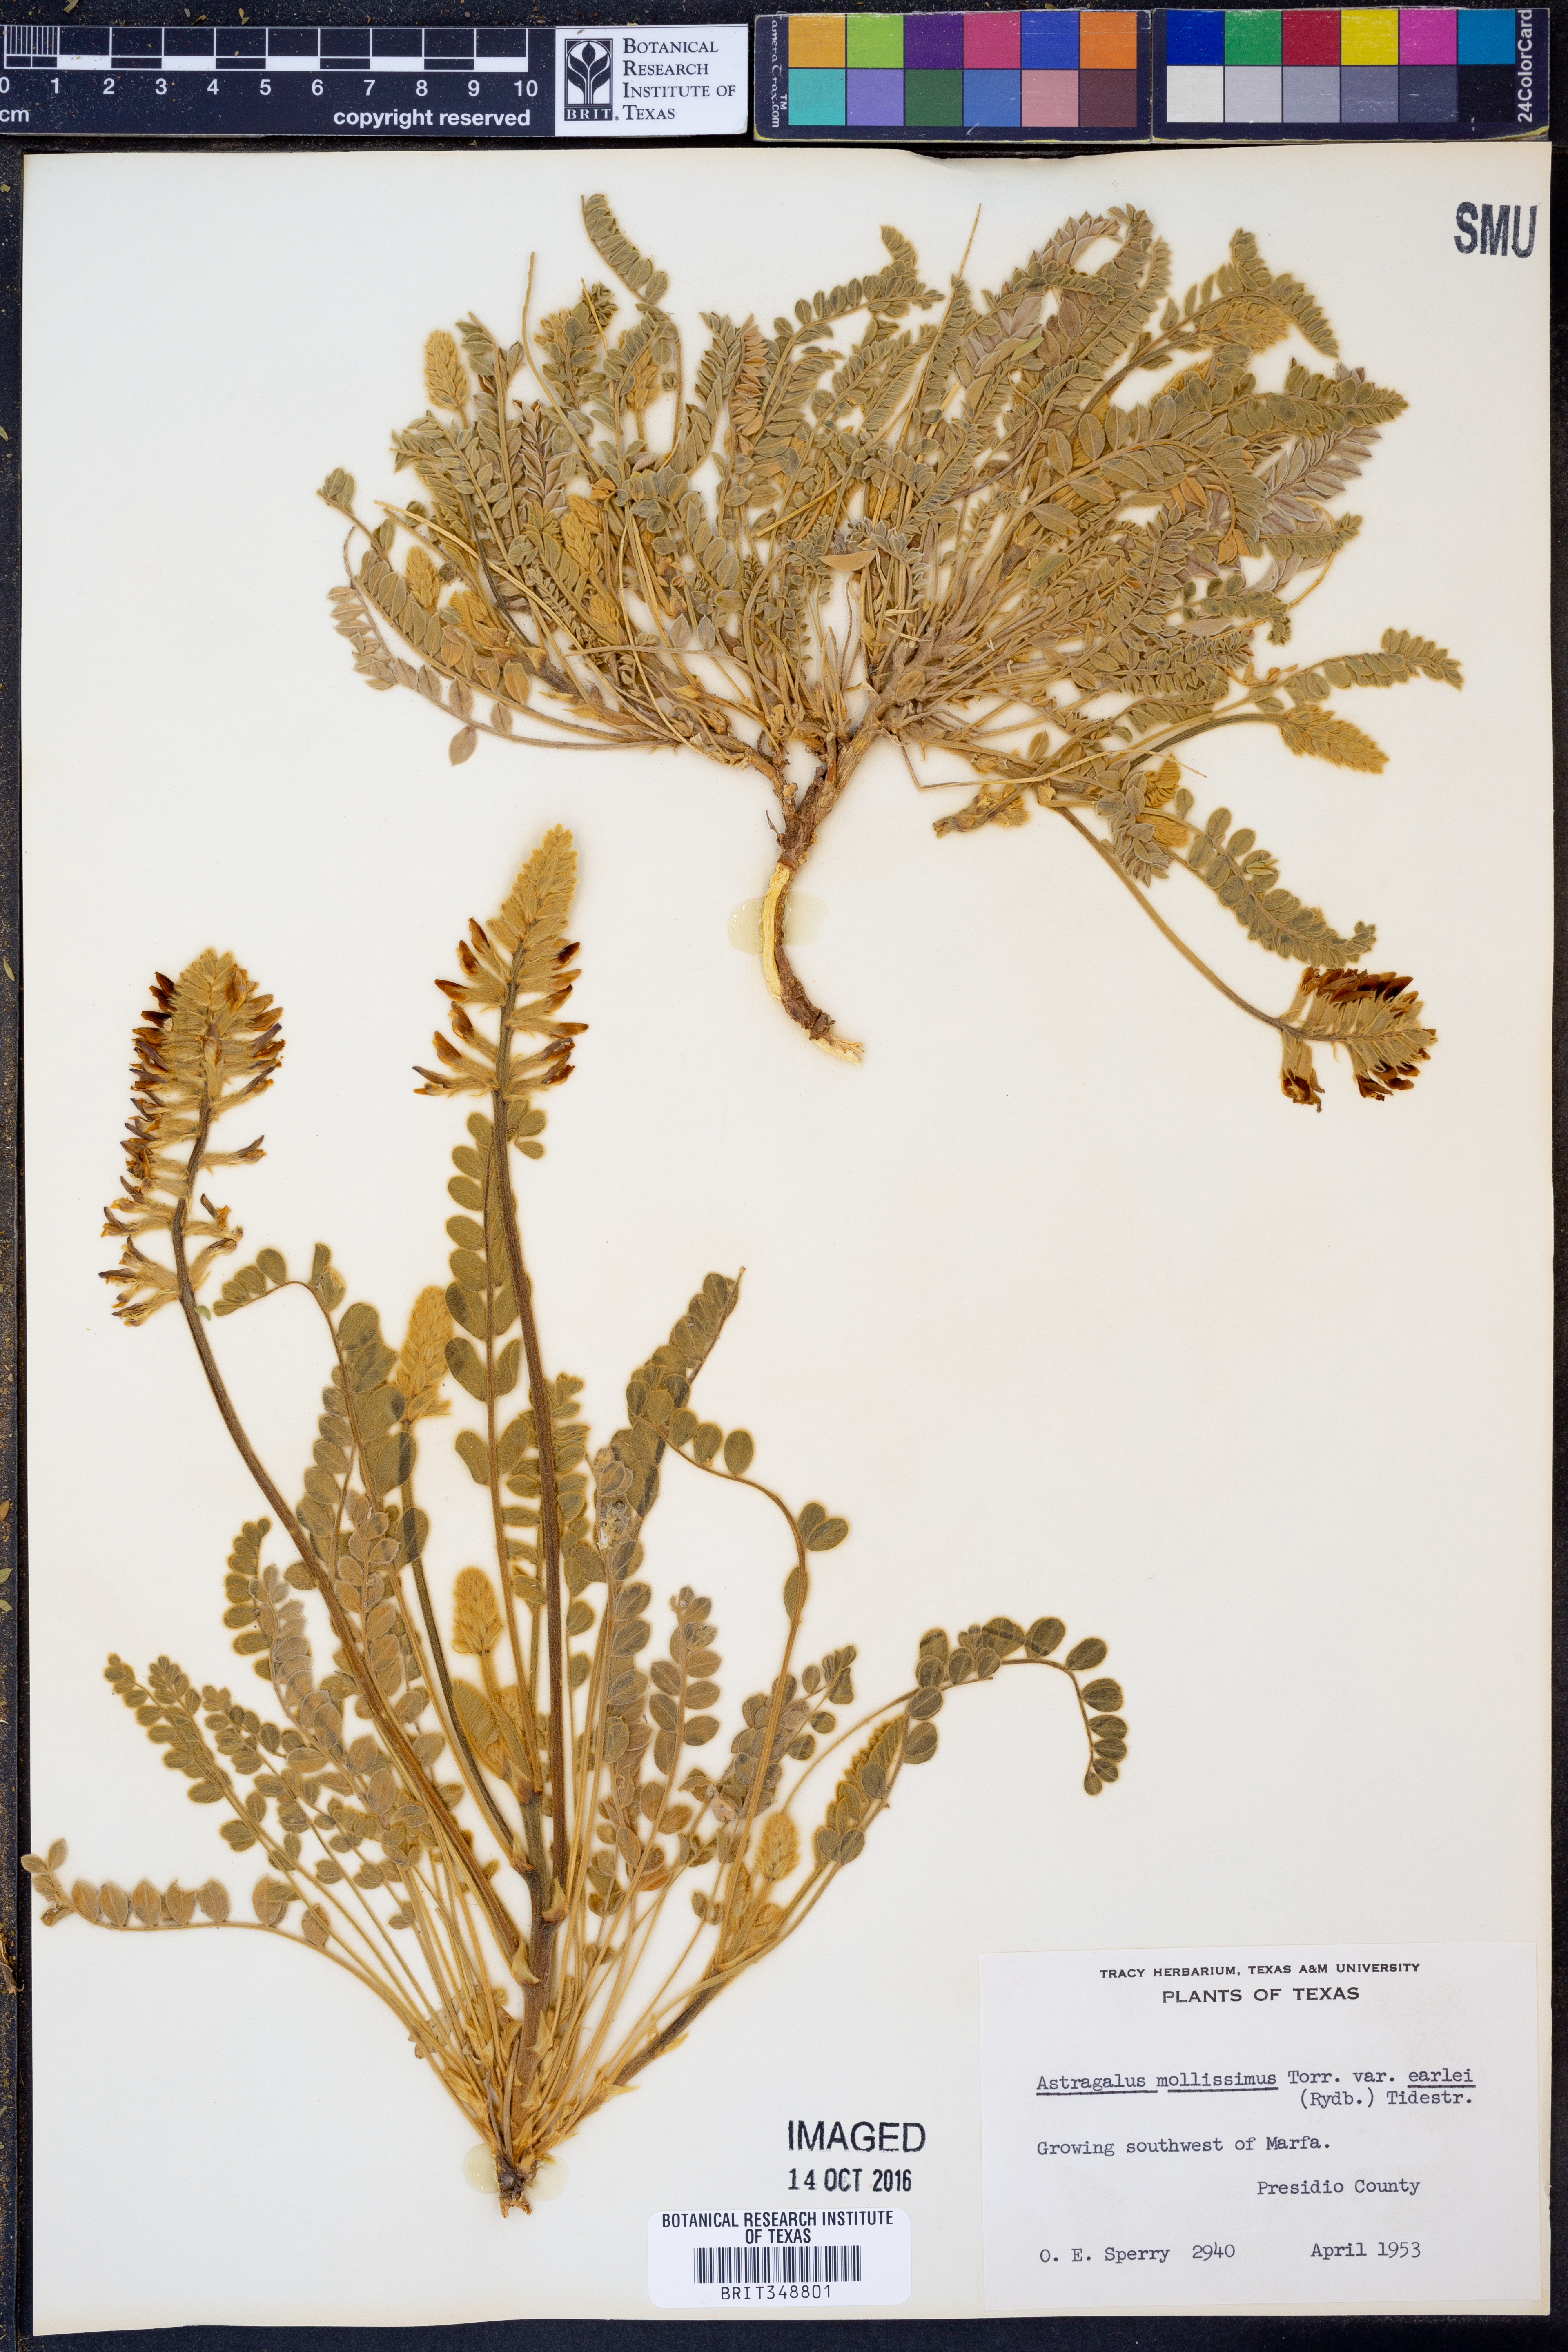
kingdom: Plantae
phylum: Tracheophyta
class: Magnoliopsida
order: Fabales
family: Fabaceae
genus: Astragalus
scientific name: Astragalus mollissimus
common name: Woolly locoweed
